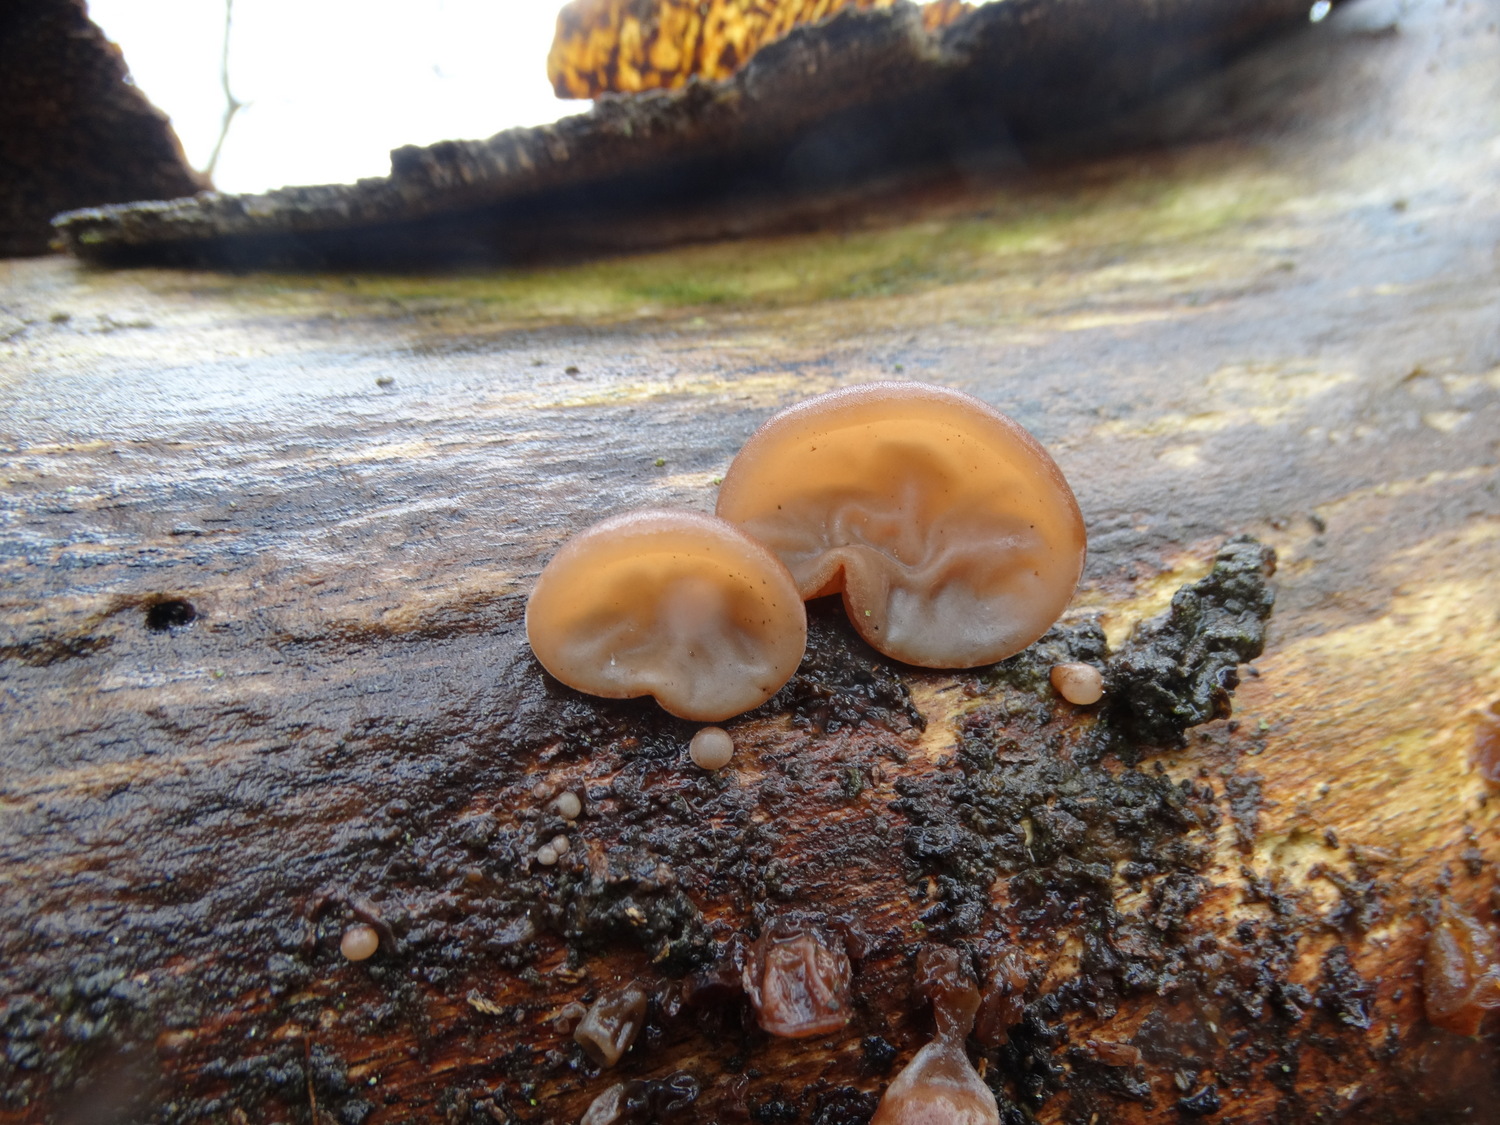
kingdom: Fungi
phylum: Basidiomycota
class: Agaricomycetes
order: Auriculariales
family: Auriculariaceae
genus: Auricularia
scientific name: Auricularia auricula-judae
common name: almindelig judasøre
